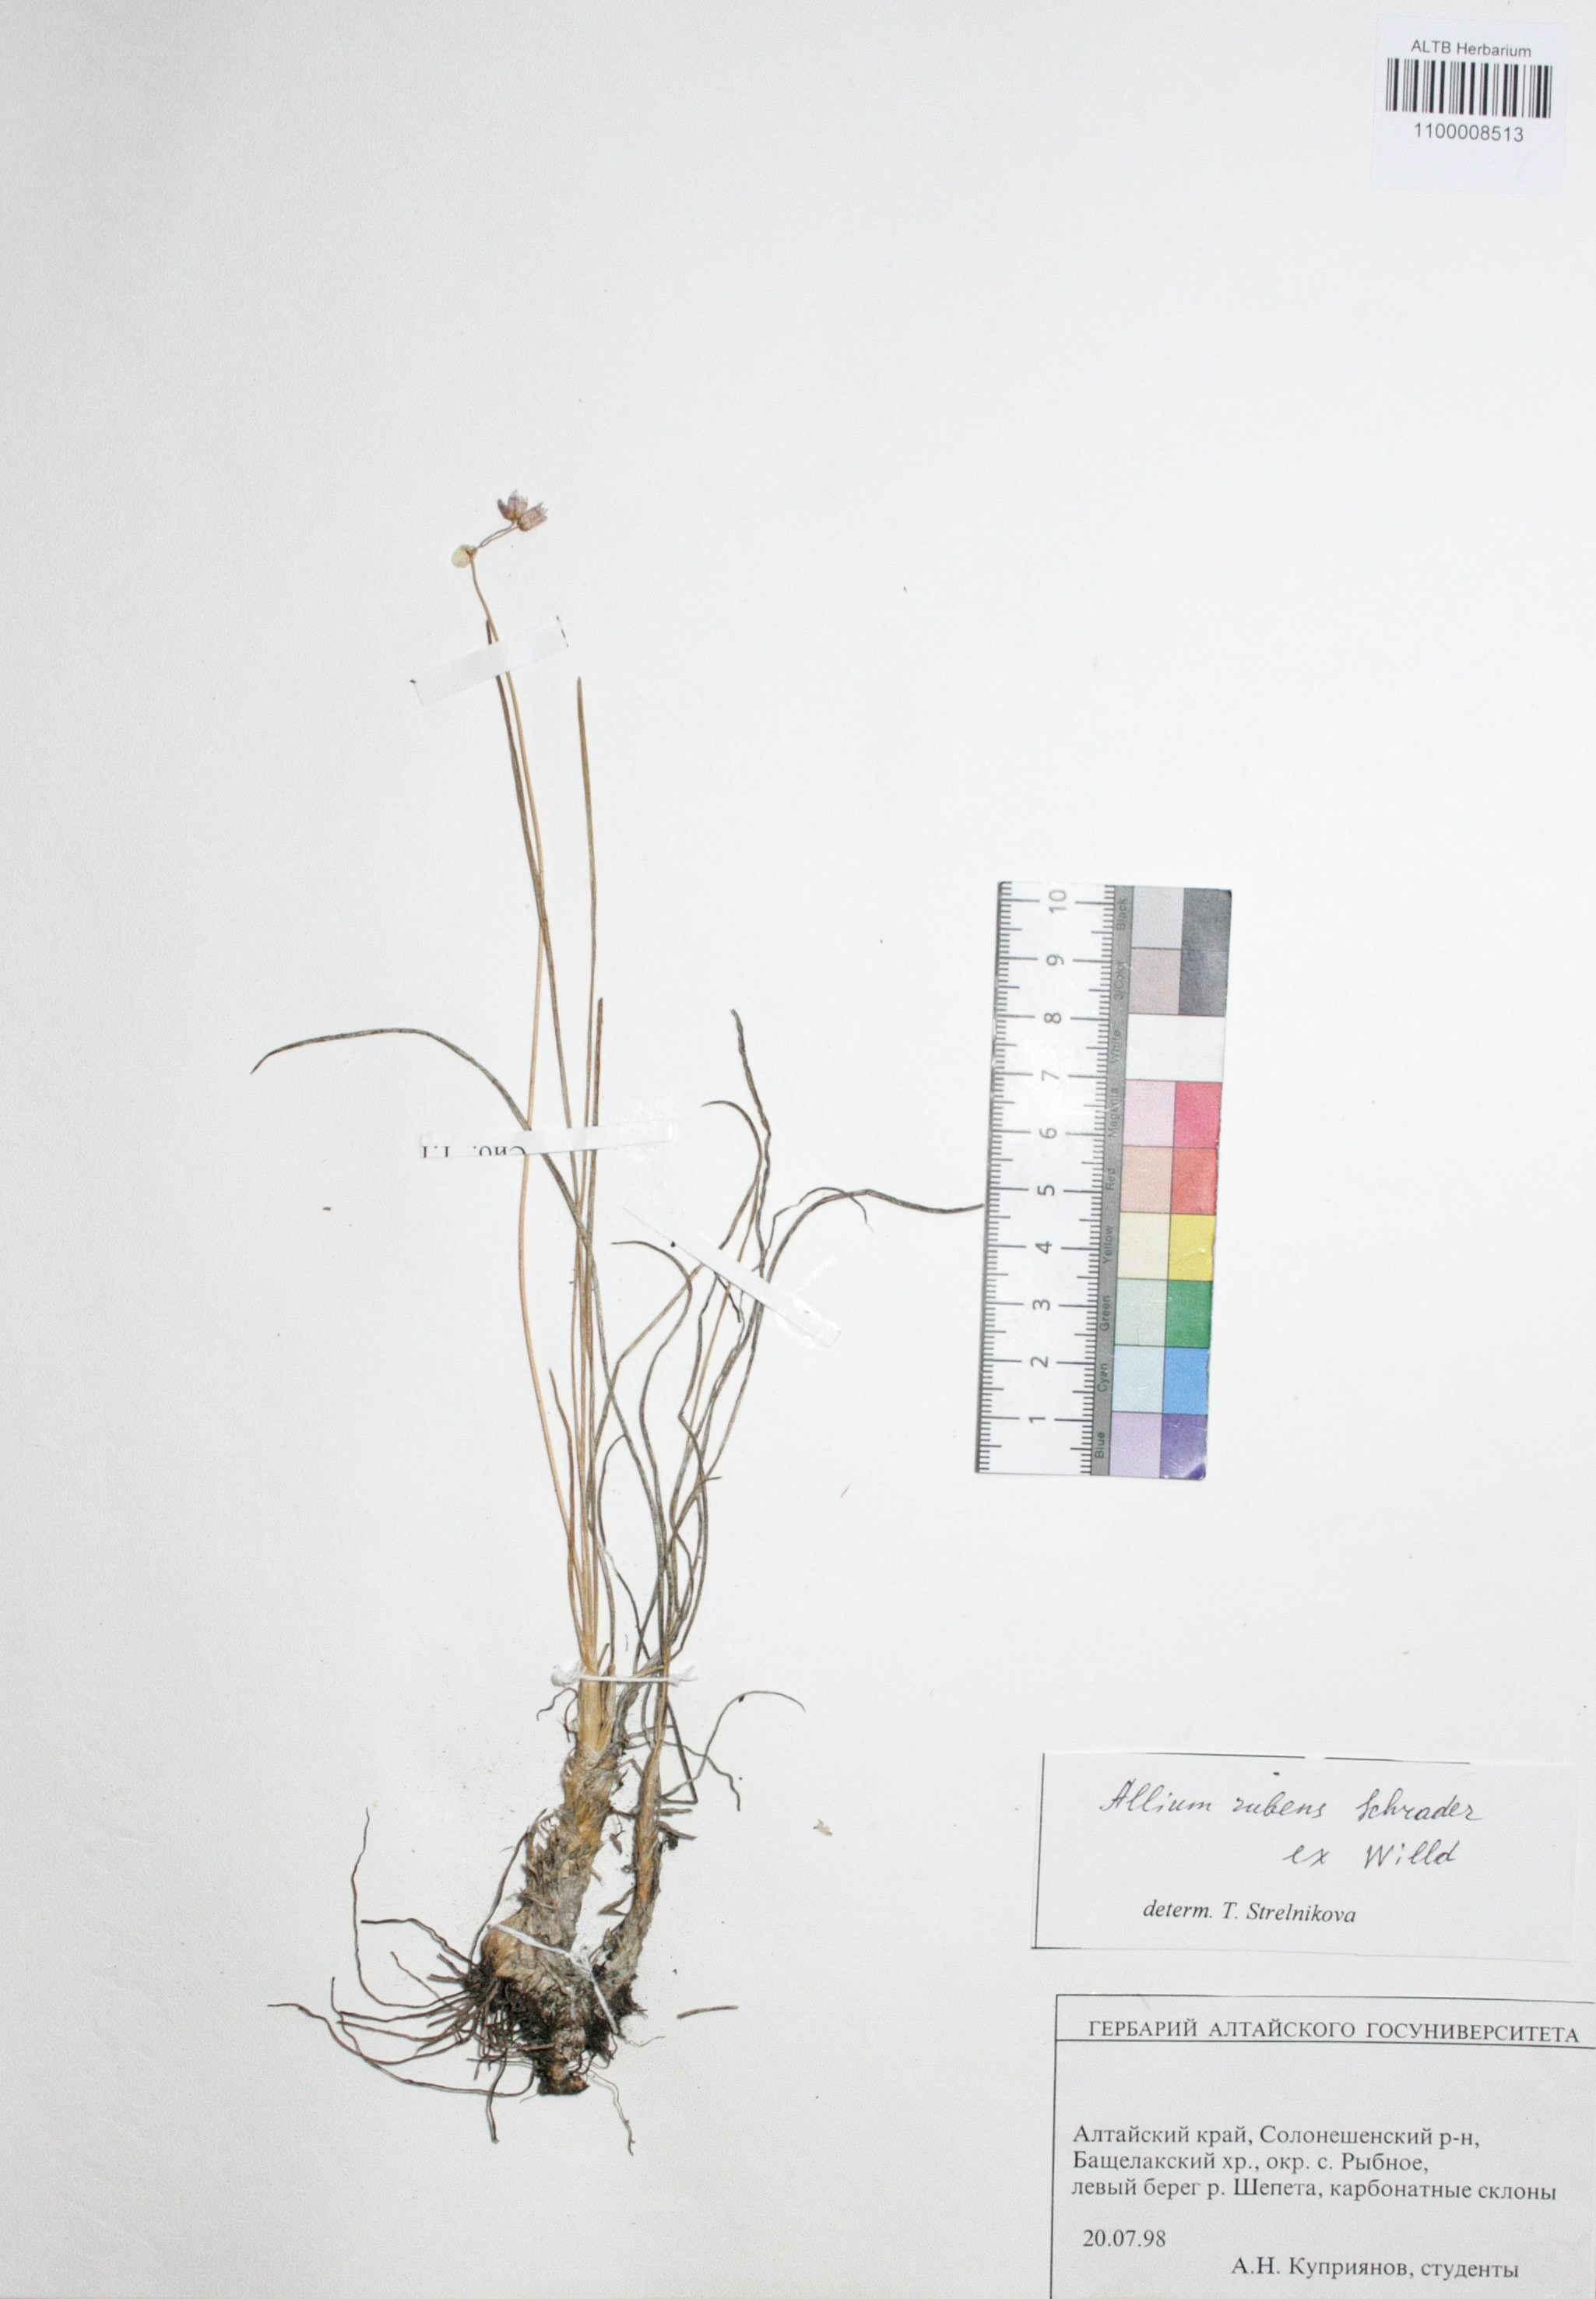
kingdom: Plantae
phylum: Tracheophyta
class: Liliopsida
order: Asparagales
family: Amaryllidaceae
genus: Allium
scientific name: Allium rubens
